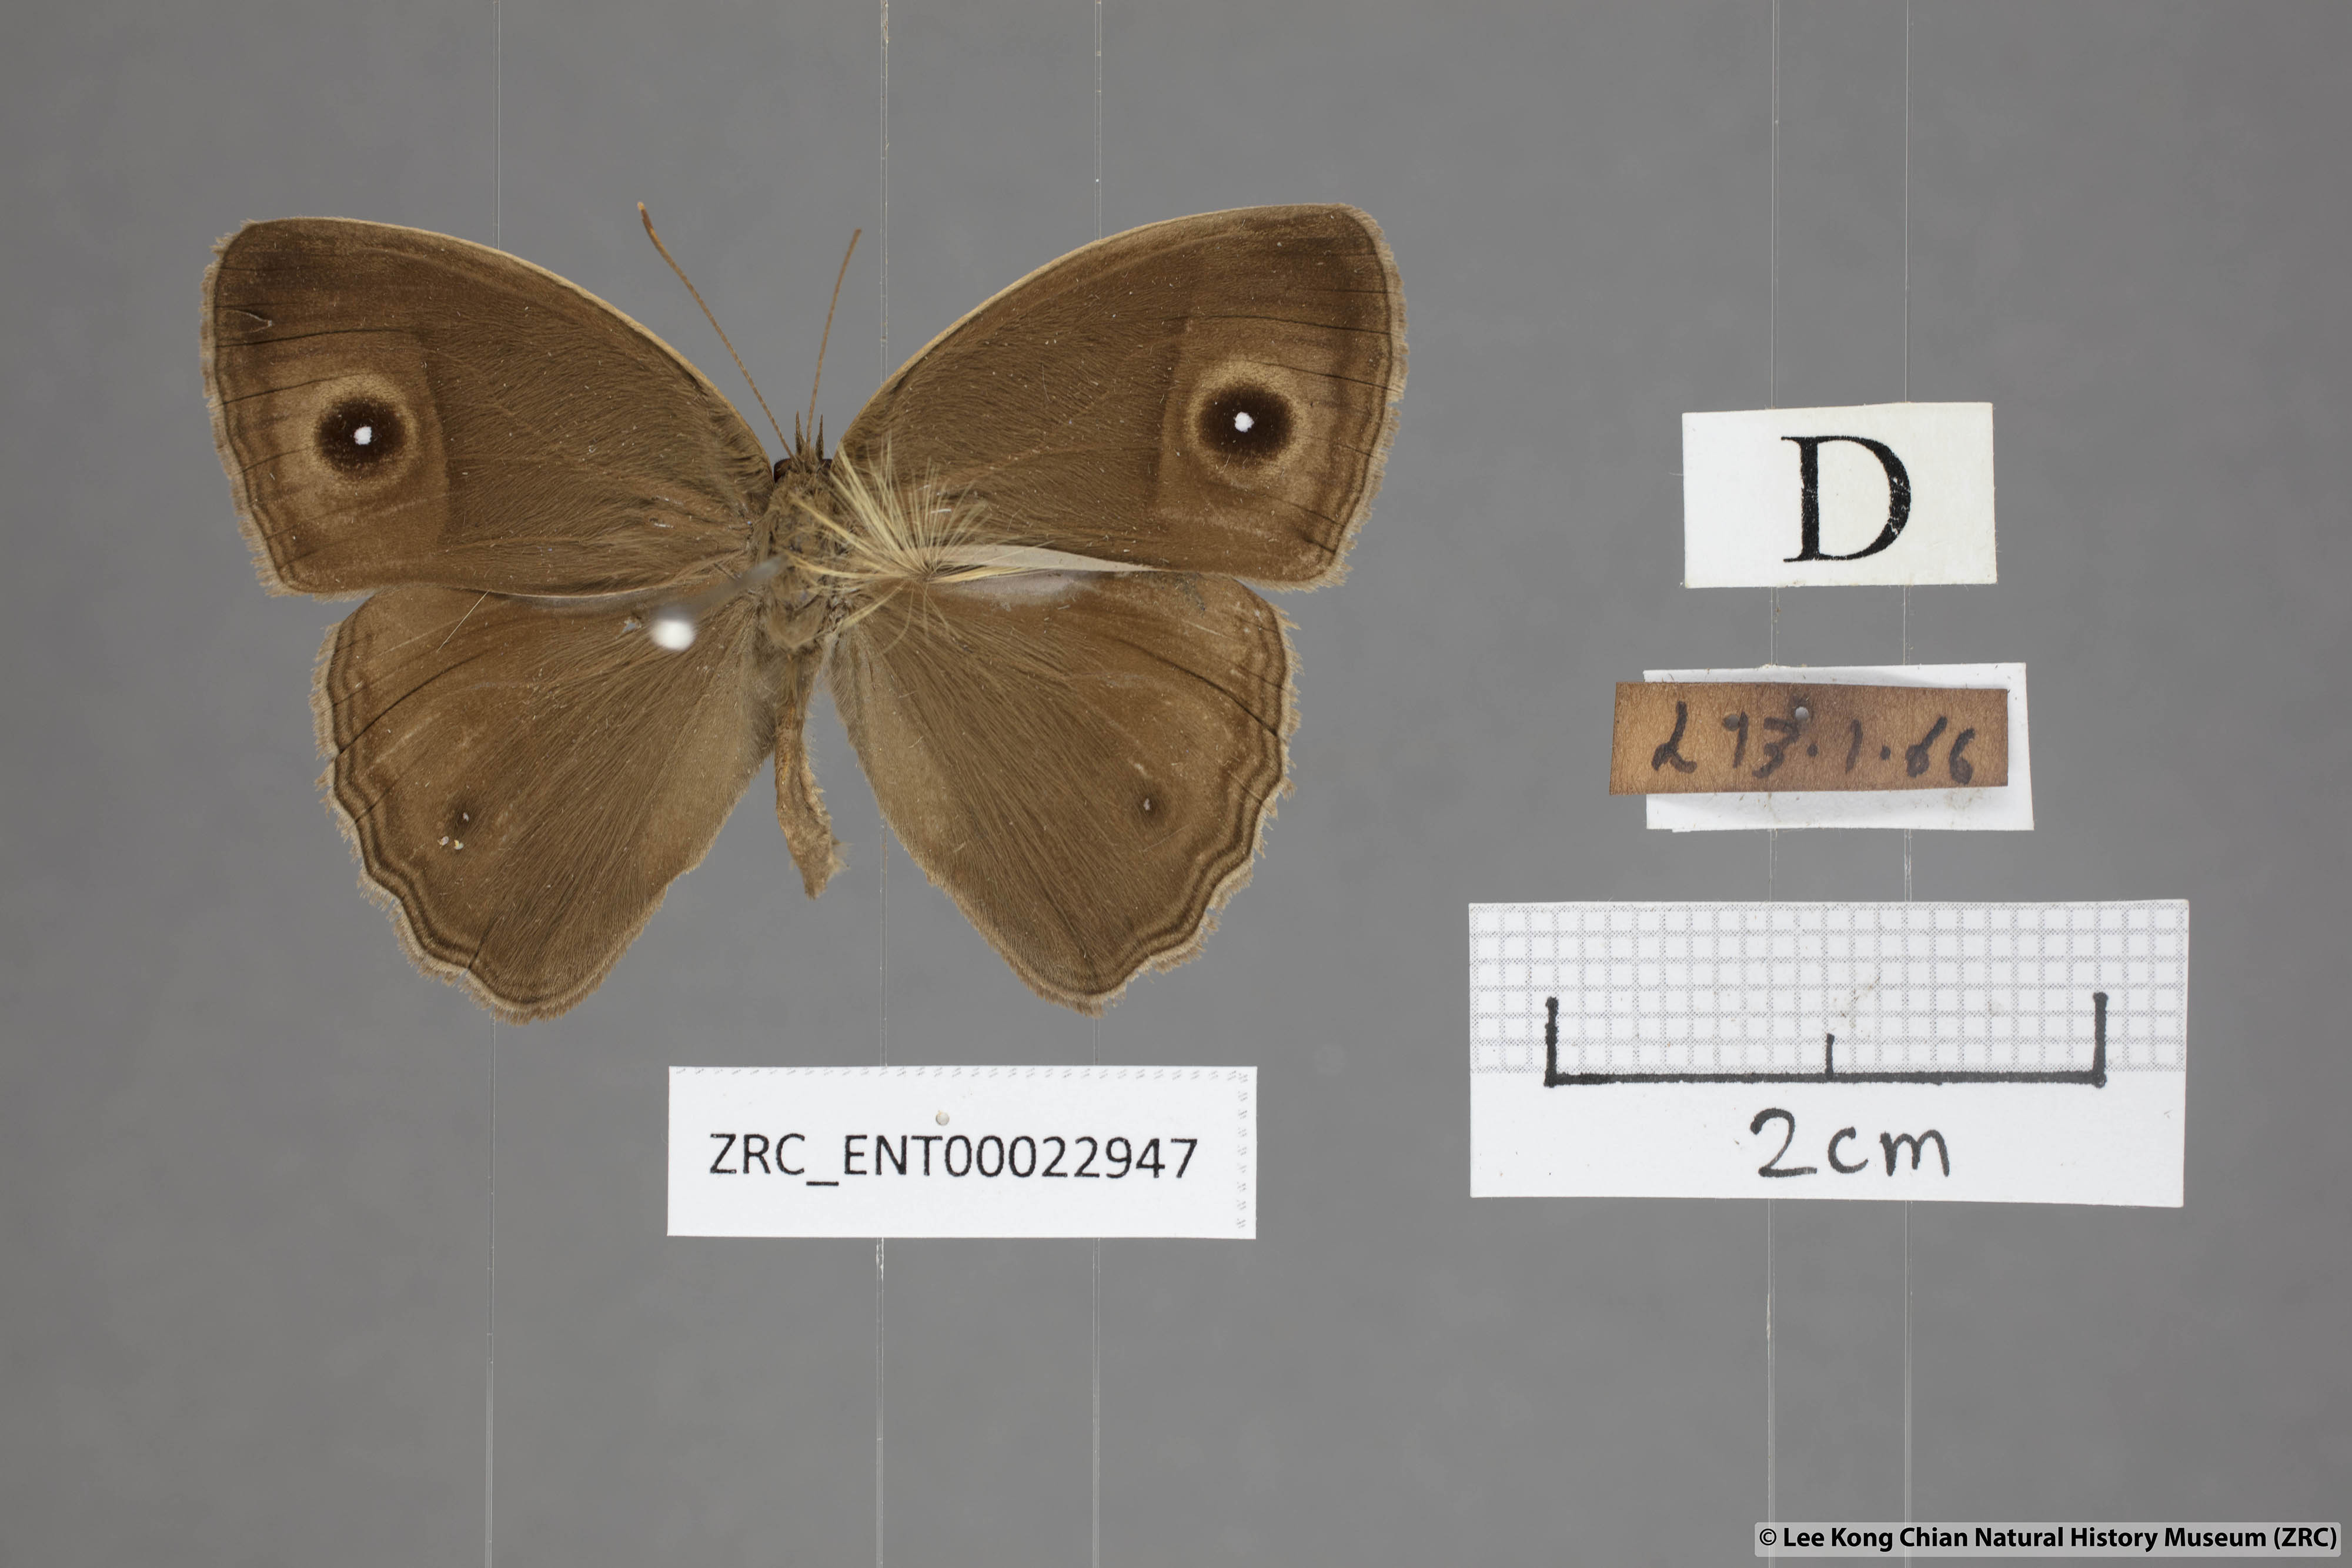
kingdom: Animalia
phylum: Arthropoda
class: Insecta
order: Lepidoptera
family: Nymphalidae
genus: Mycalesis
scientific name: Mycalesis mineus
